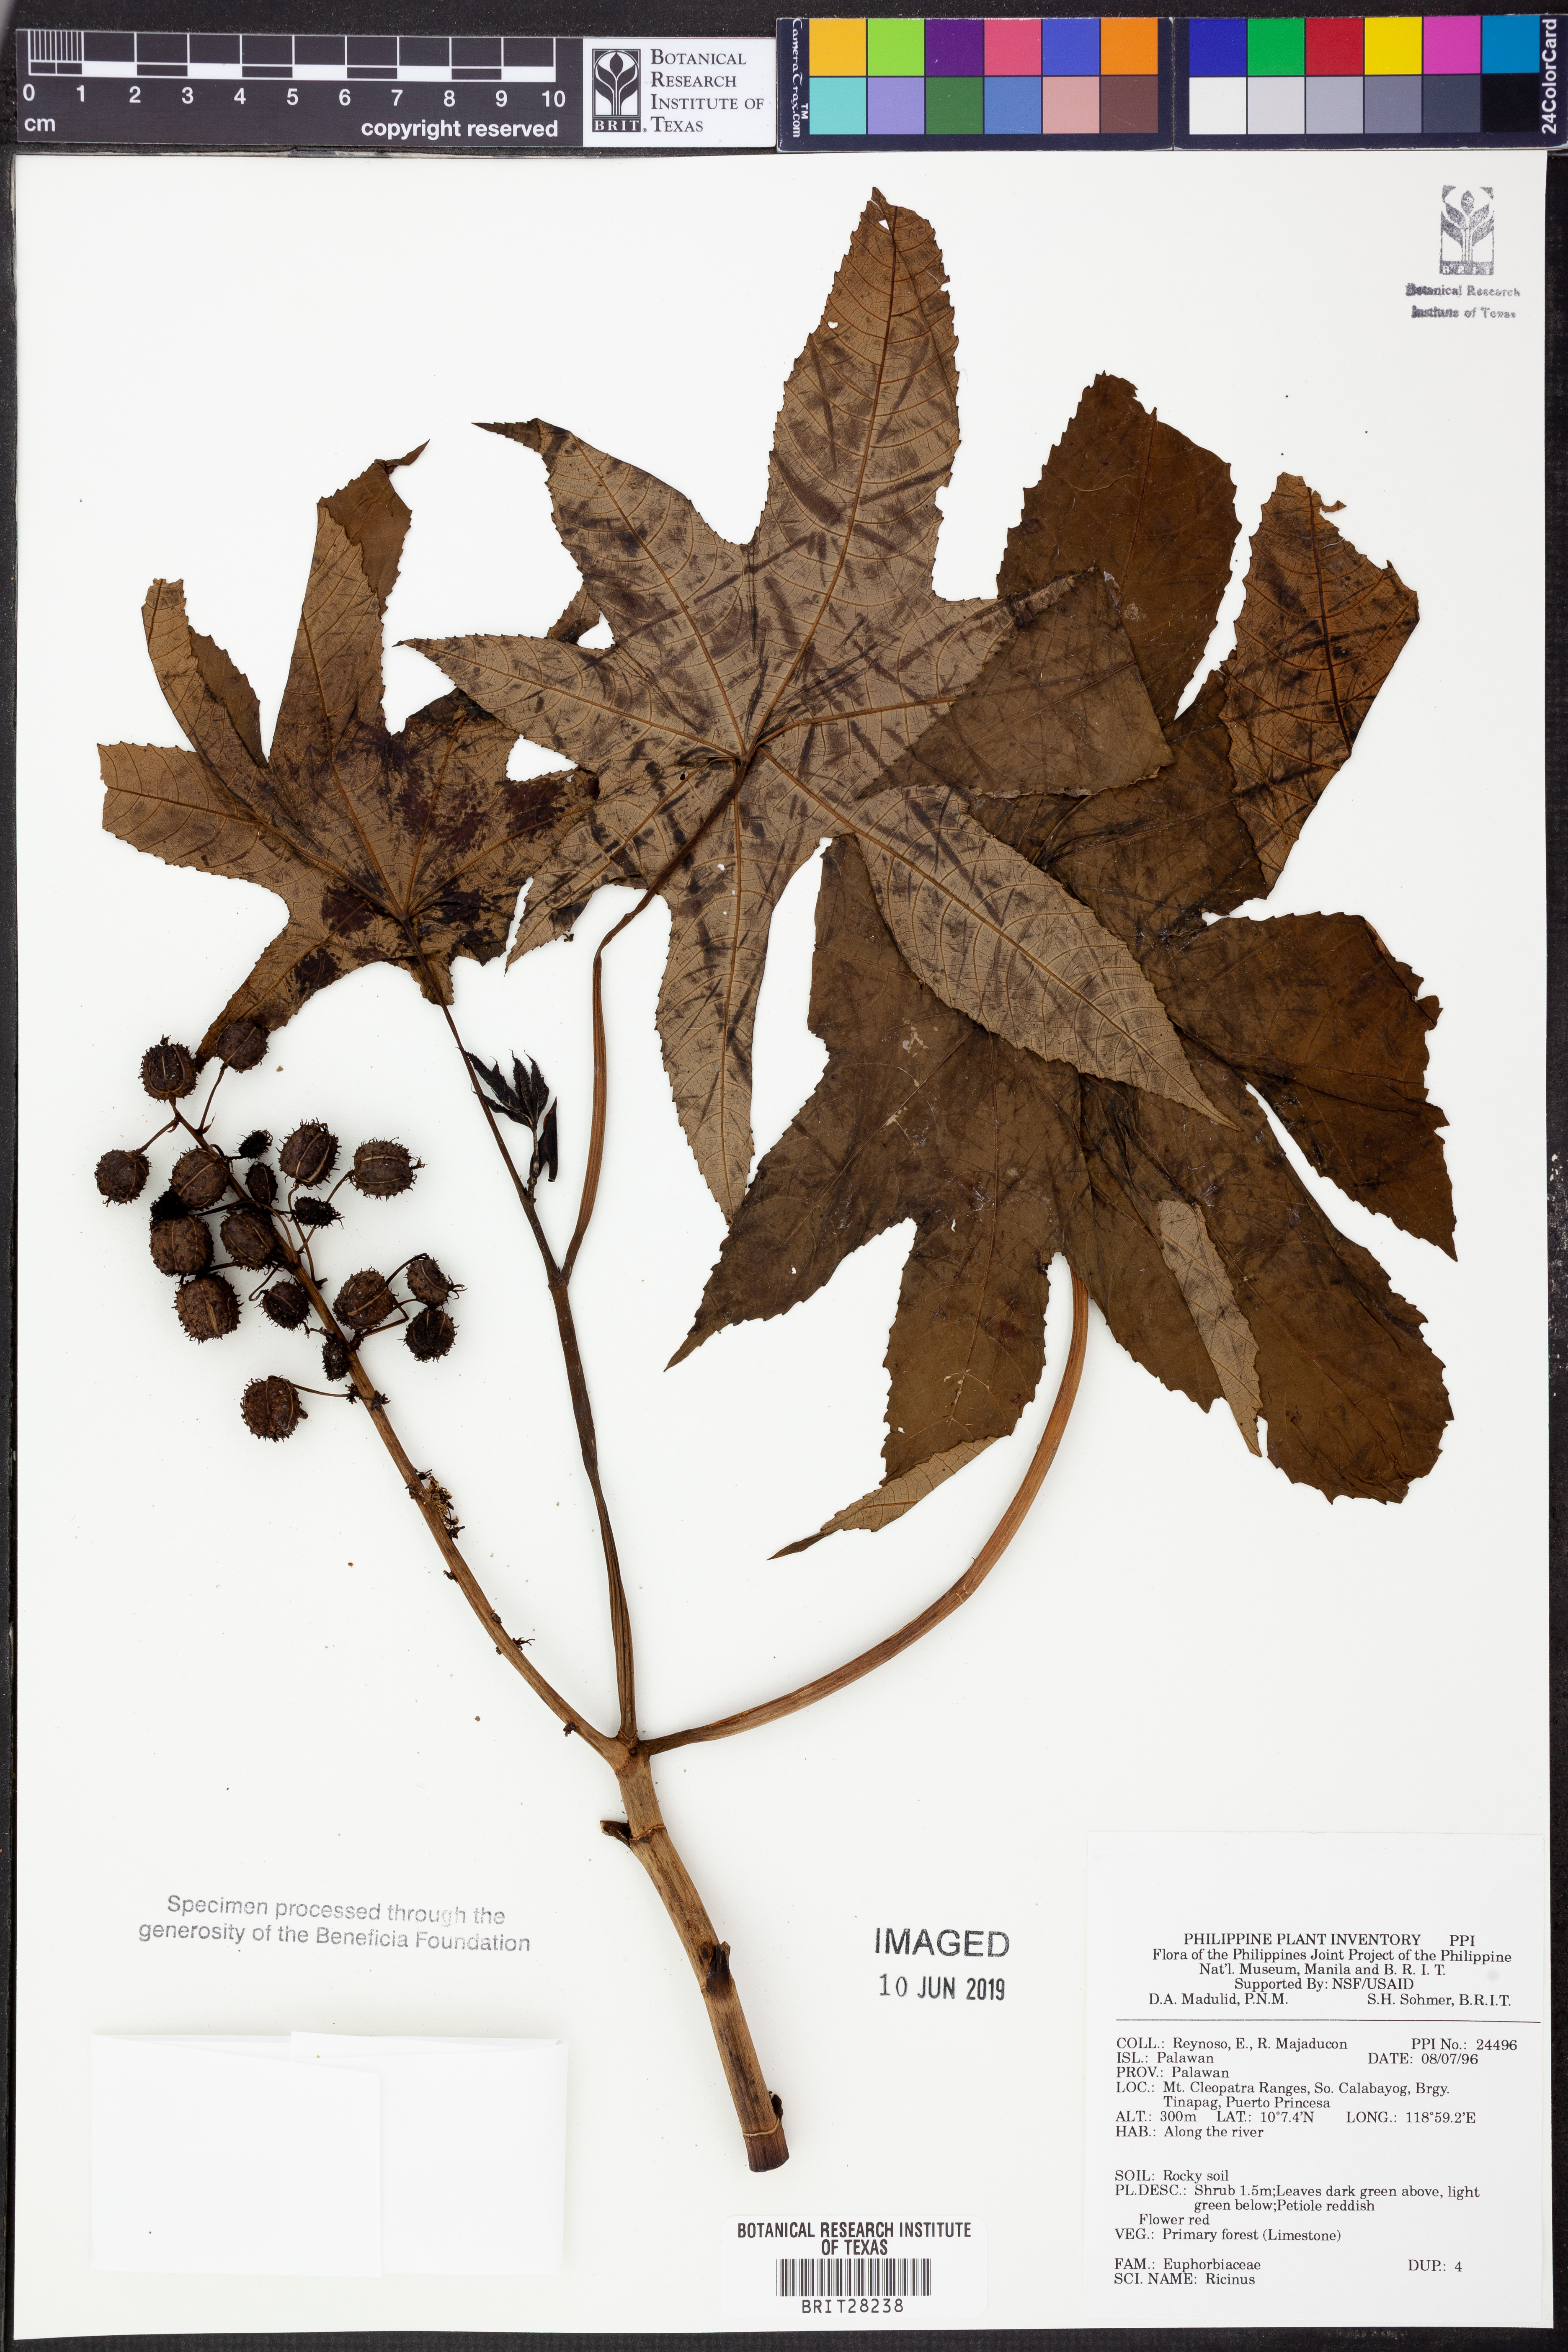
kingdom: Plantae
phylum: Tracheophyta
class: Magnoliopsida
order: Malpighiales
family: Euphorbiaceae
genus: Ricinus
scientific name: Ricinus
